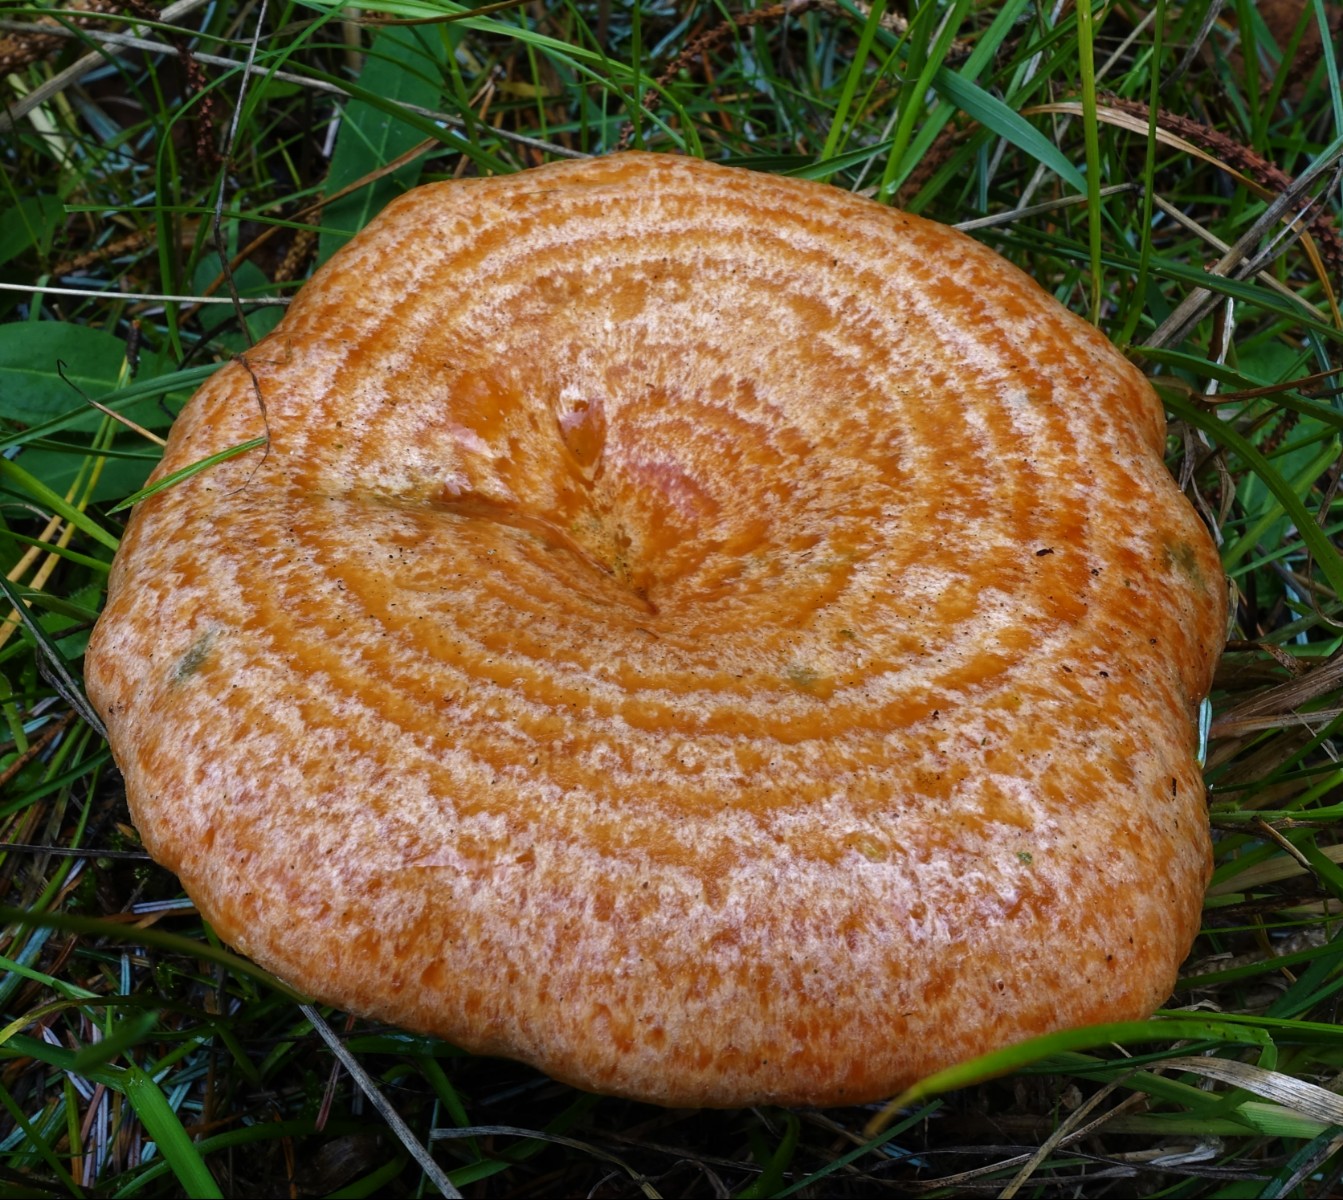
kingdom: Fungi
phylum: Basidiomycota
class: Agaricomycetes
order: Russulales
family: Russulaceae
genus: Lactarius
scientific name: Lactarius deliciosus
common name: velsmagende mælkehat
